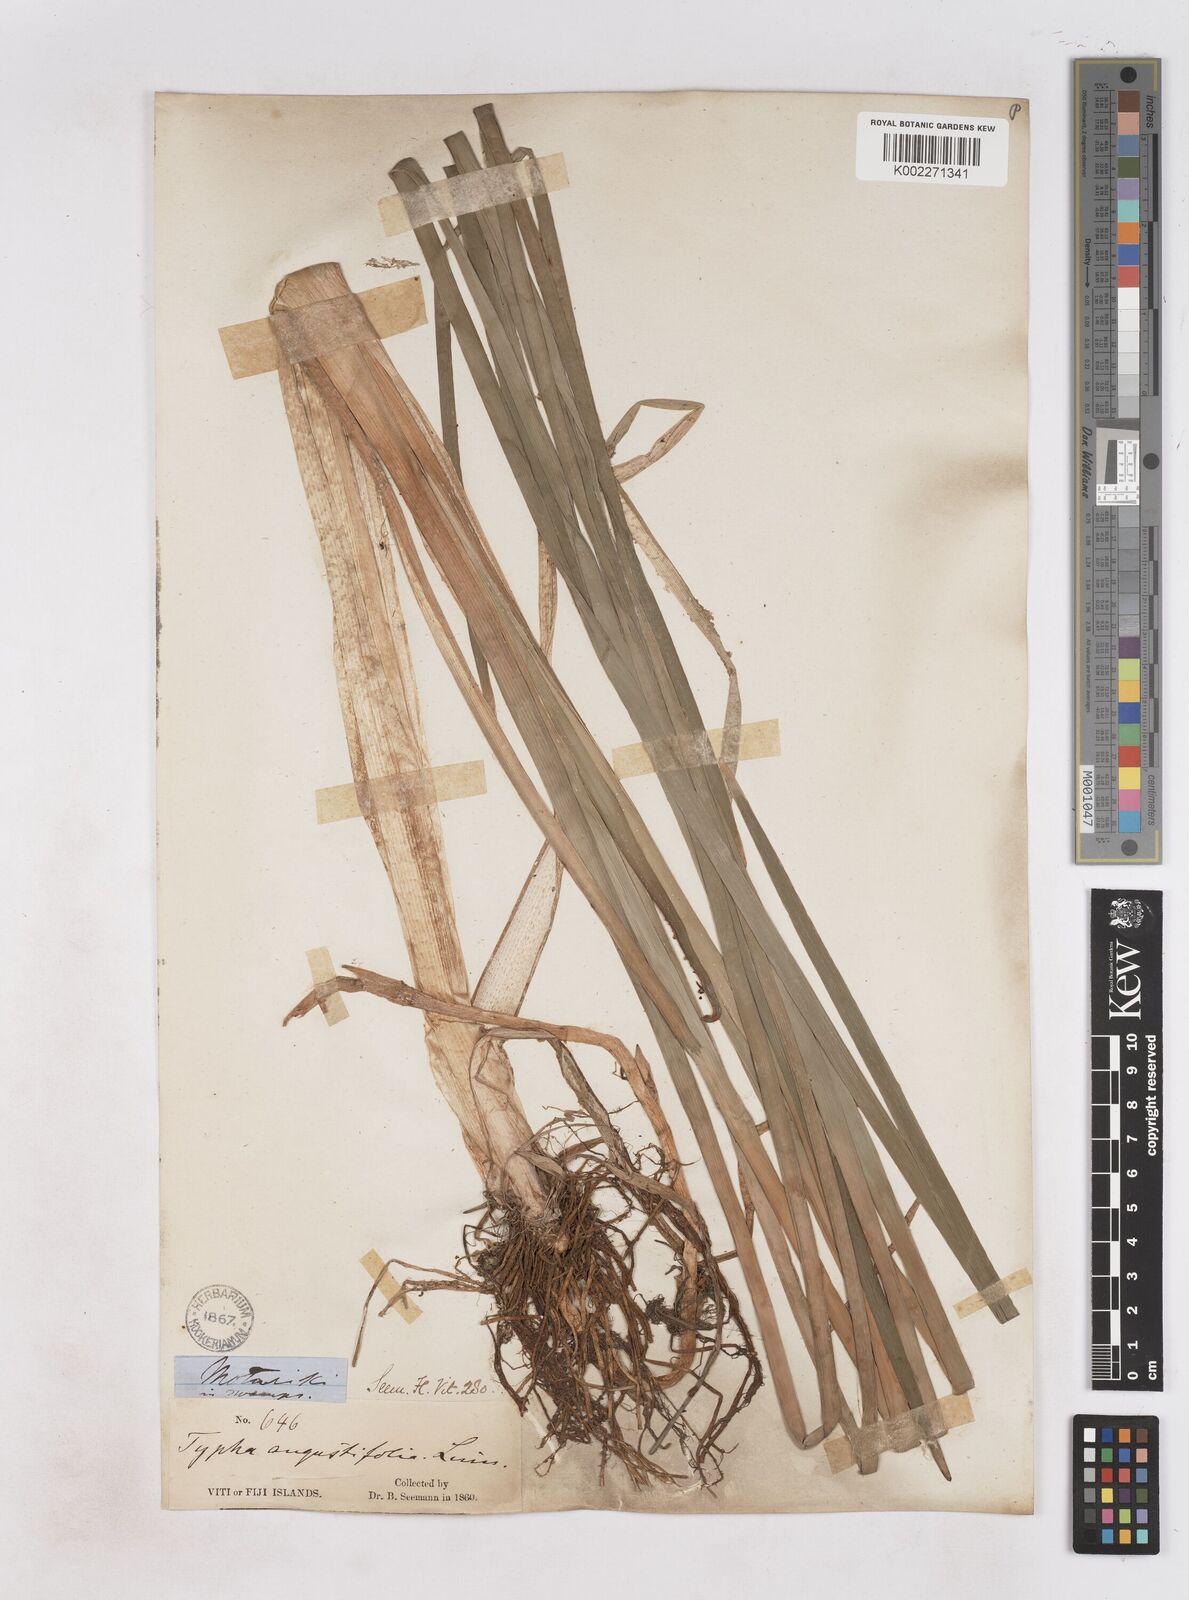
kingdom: Plantae
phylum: Tracheophyta
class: Liliopsida
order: Poales
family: Typhaceae
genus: Typha
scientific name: Typha domingensis
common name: Southern cattail
